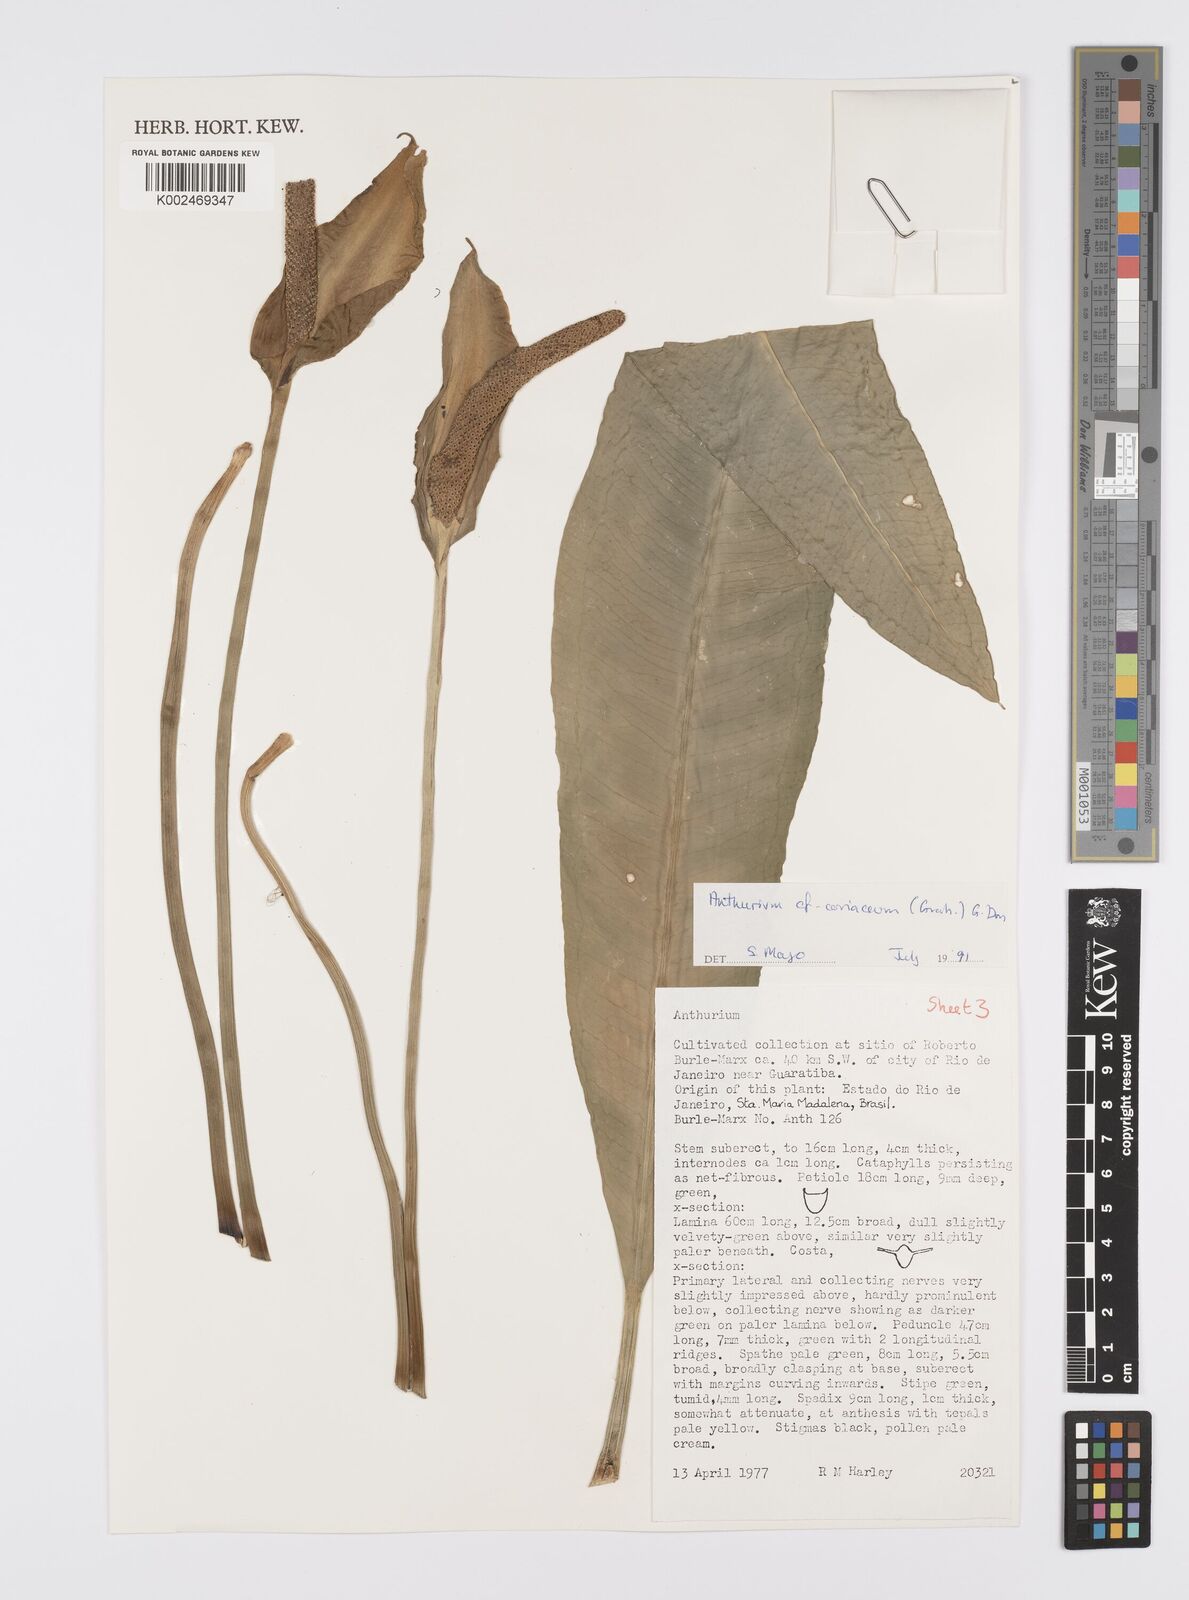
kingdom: Plantae
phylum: Tracheophyta
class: Liliopsida
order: Alismatales
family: Araceae
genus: Anthurium
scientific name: Anthurium
